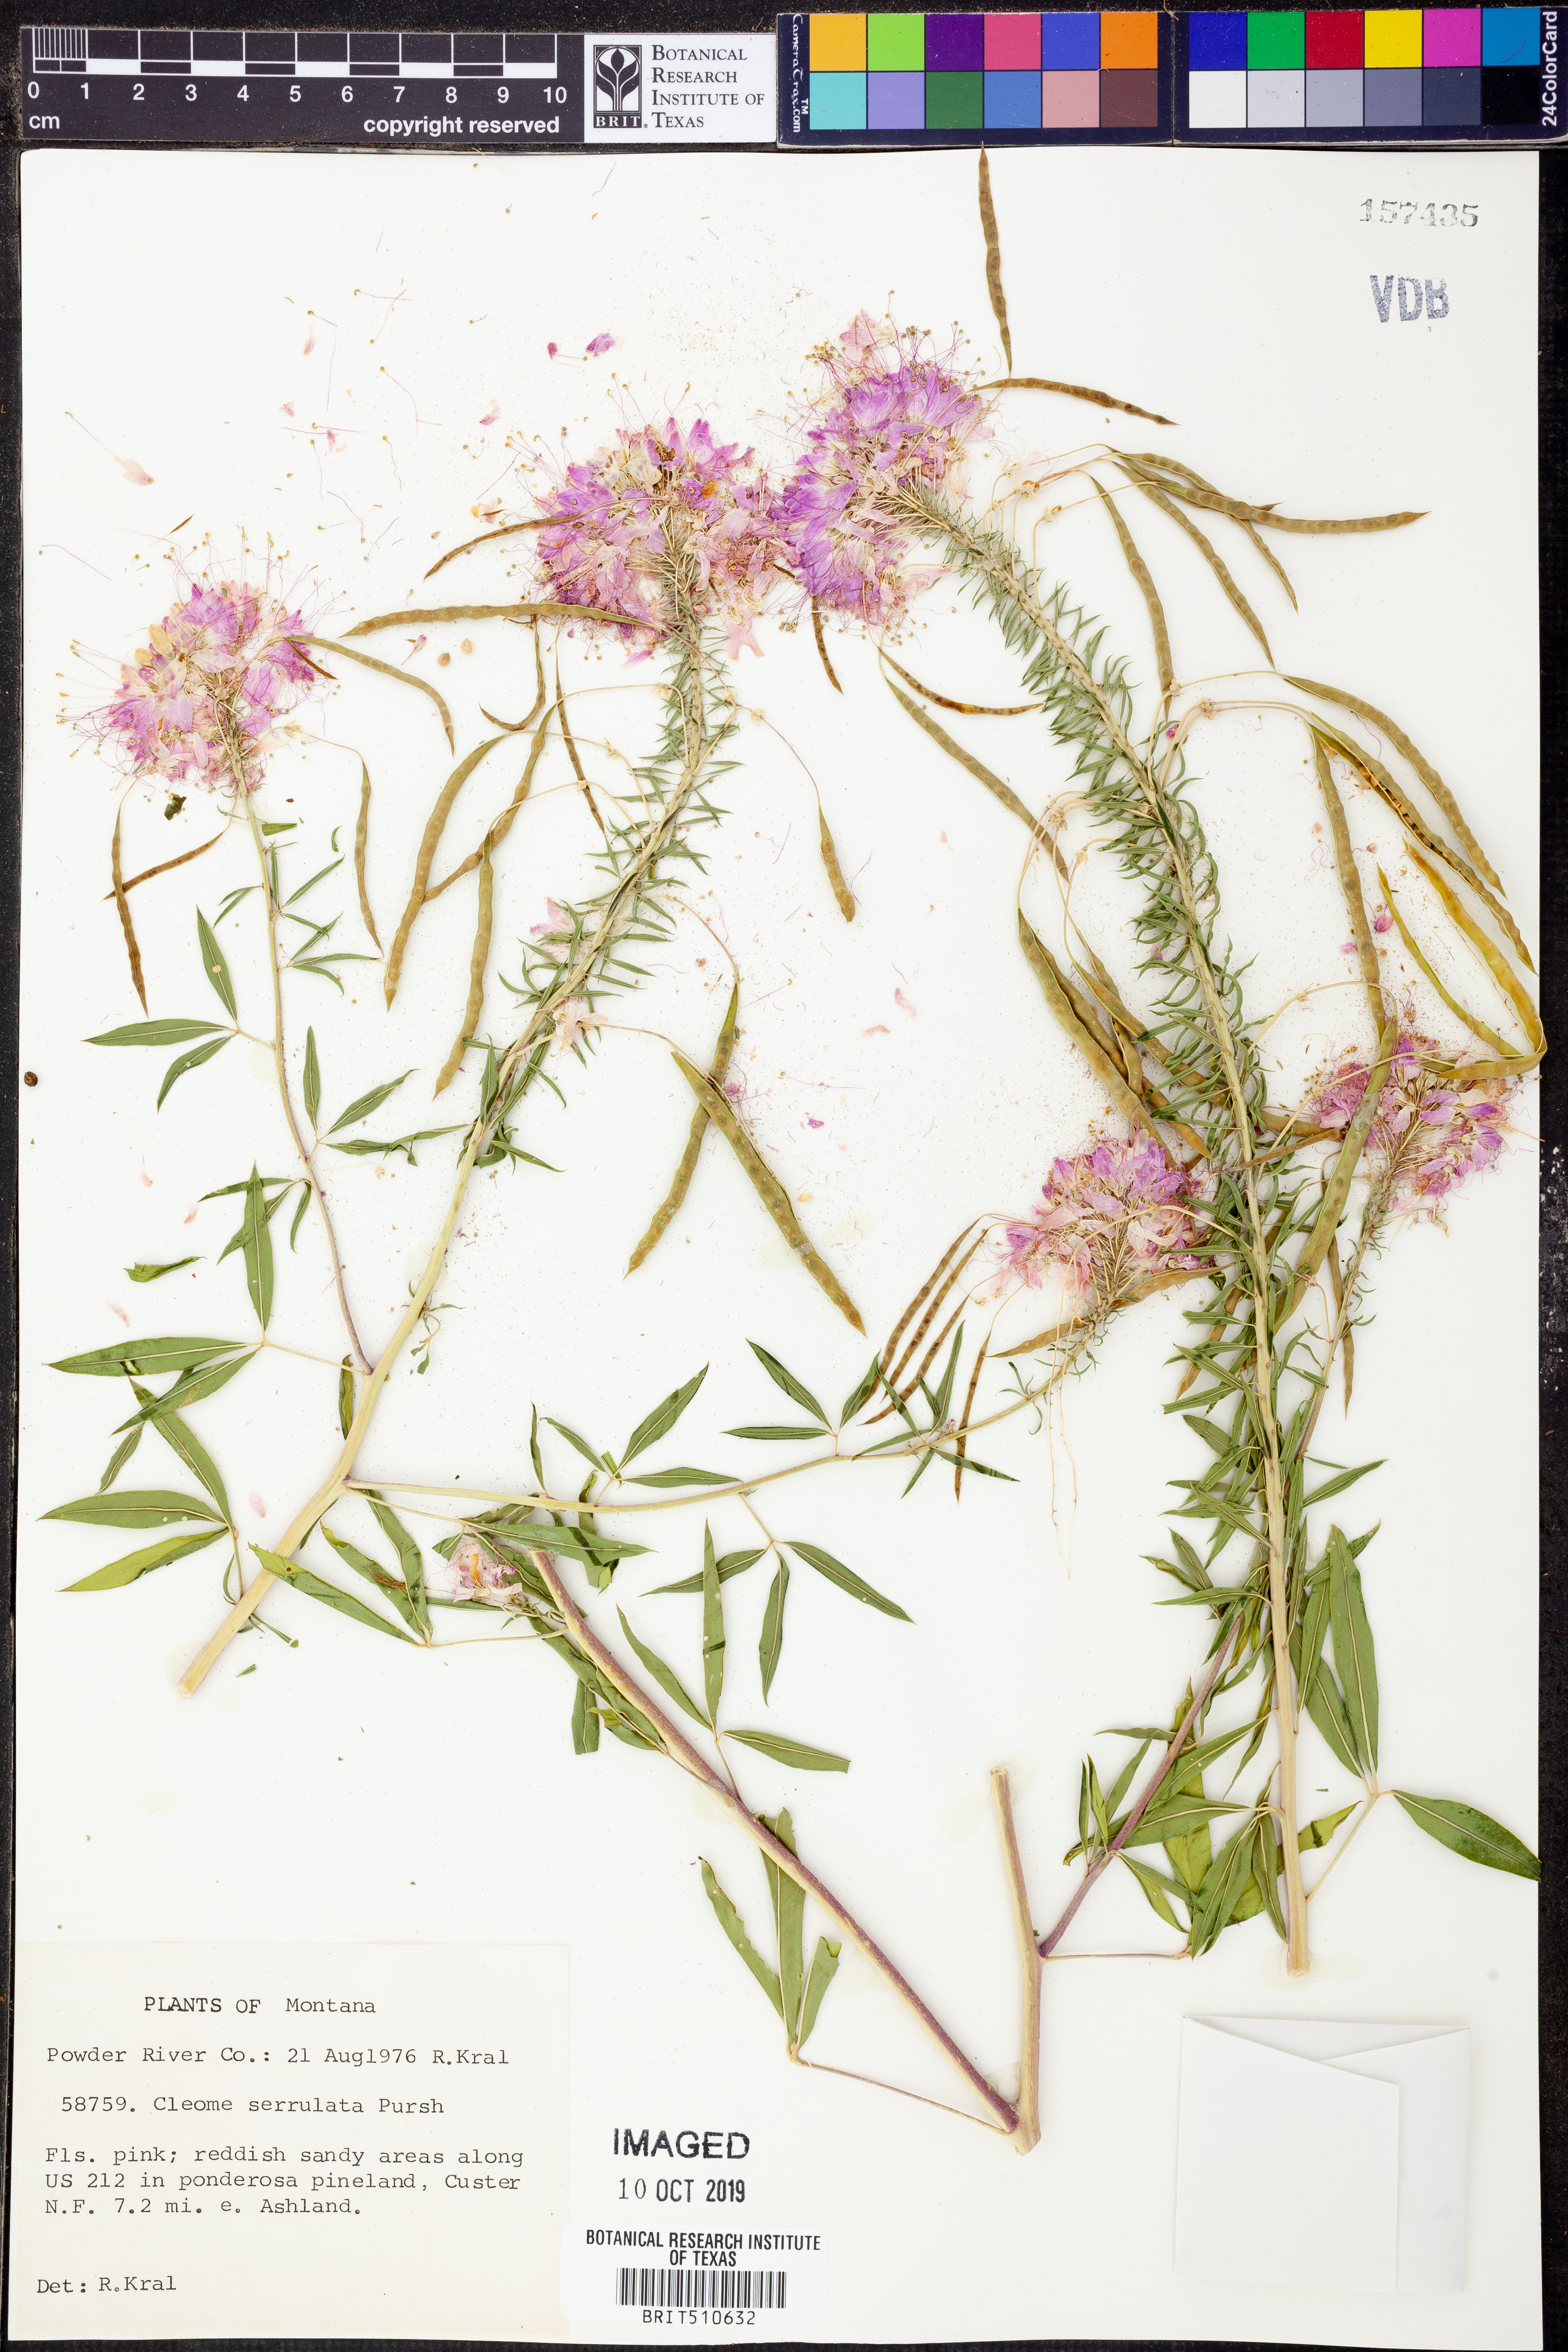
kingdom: Plantae
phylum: Tracheophyta
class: Magnoliopsida
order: Brassicales
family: Cleomaceae
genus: Cleomella
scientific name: Cleomella serrulata
